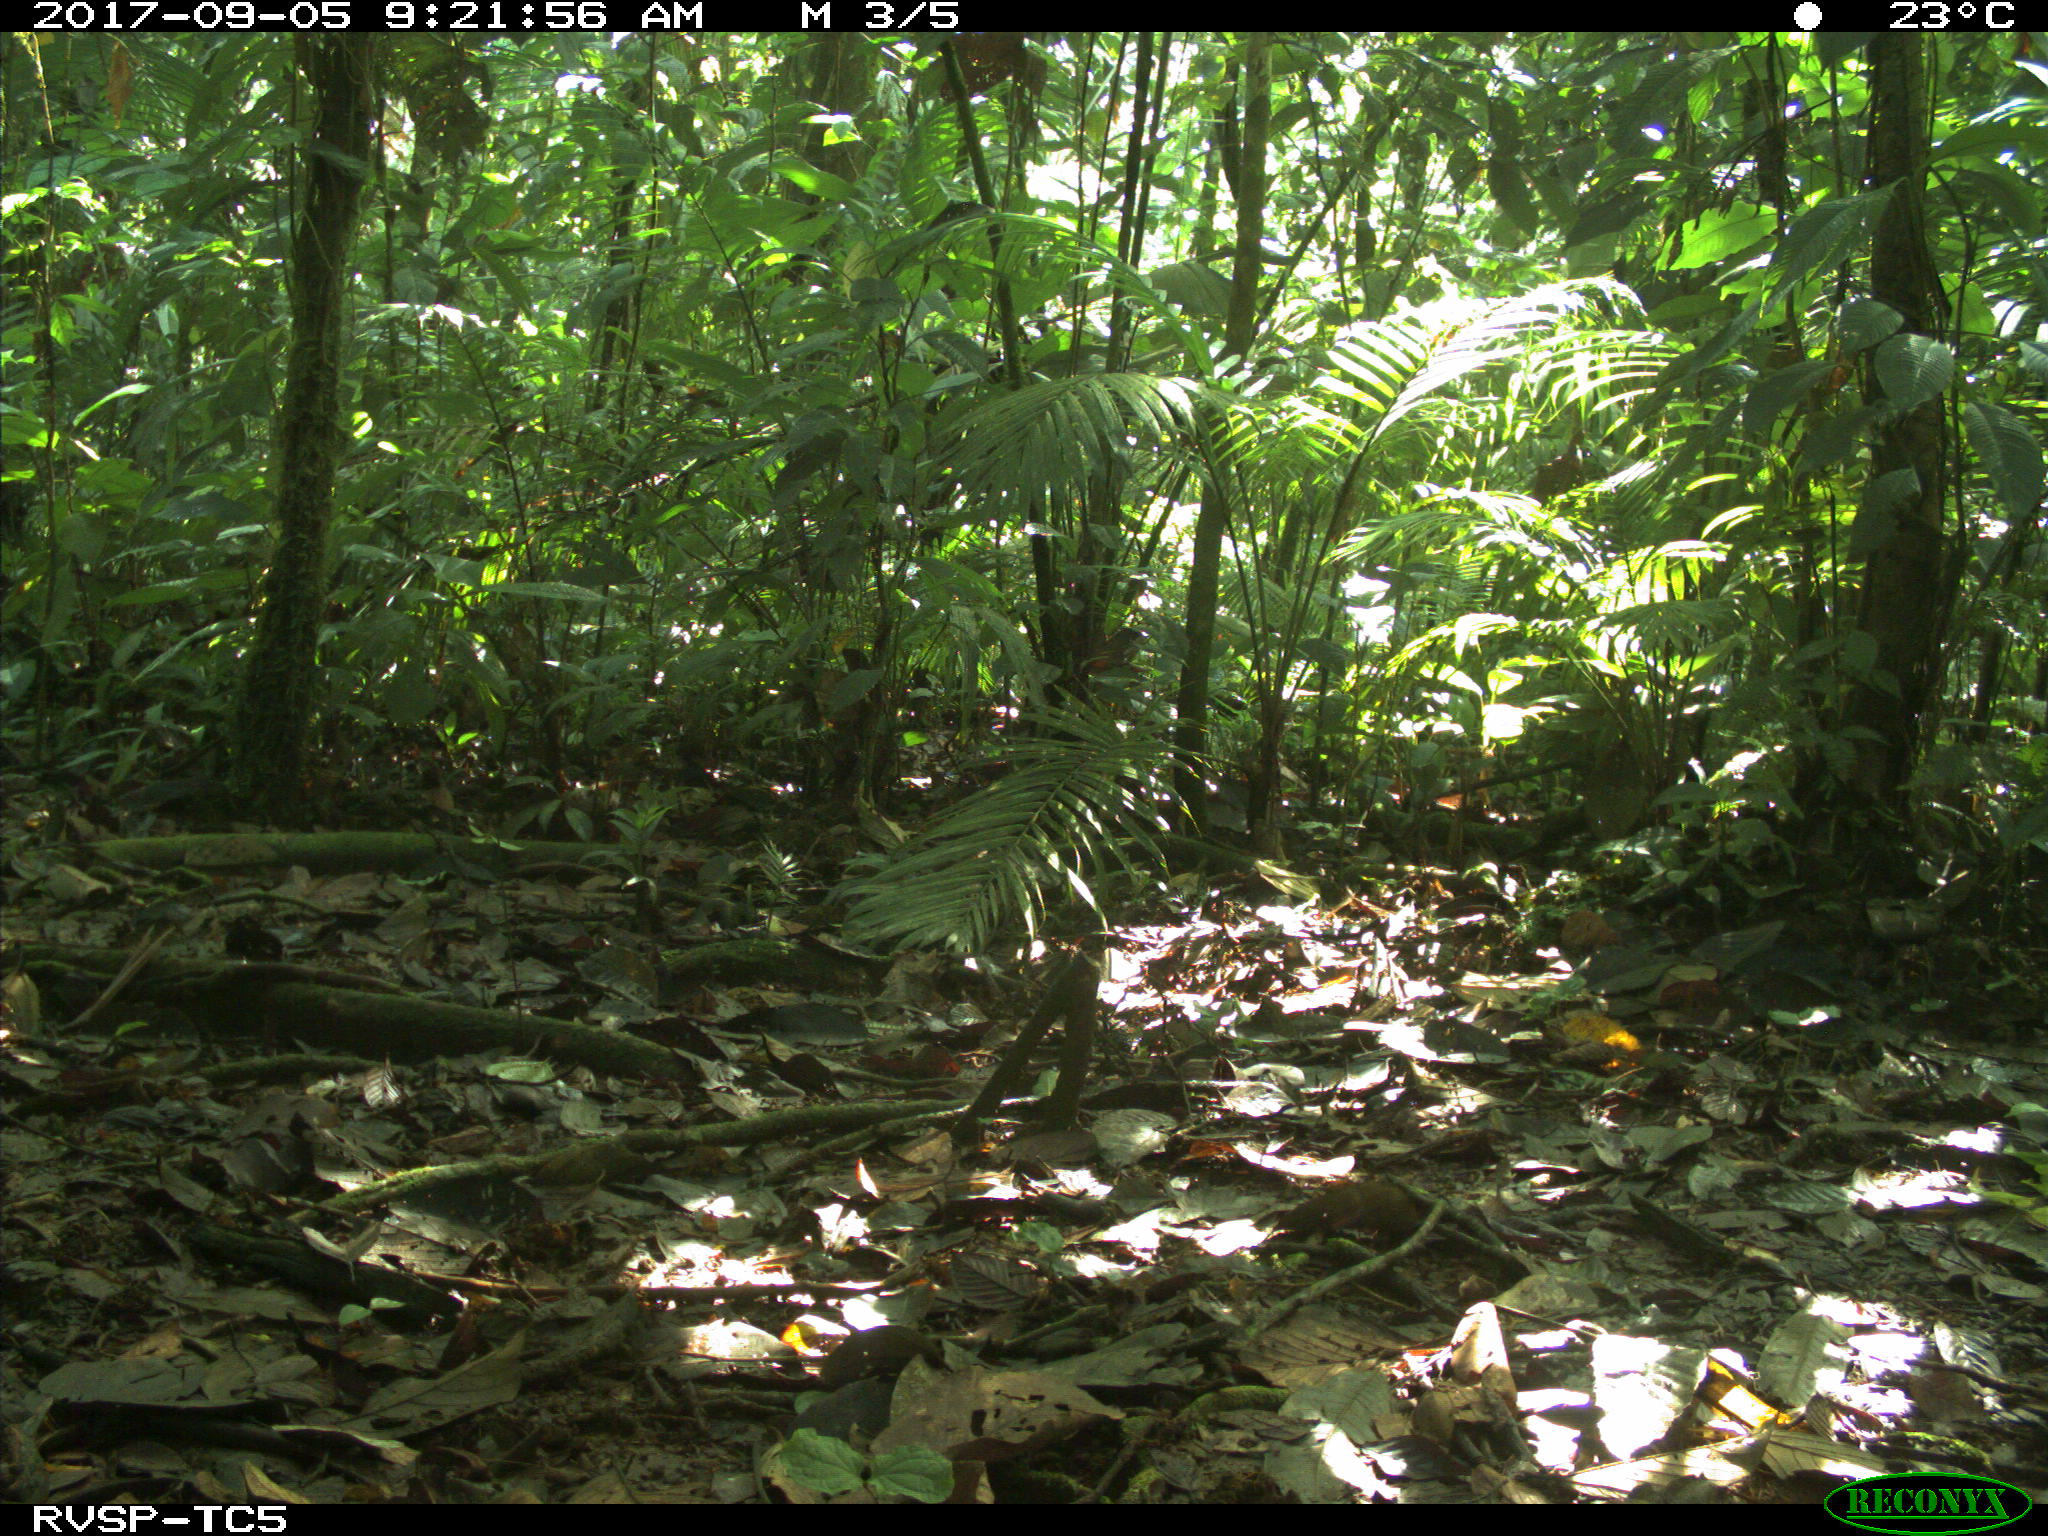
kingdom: Animalia
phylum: Chordata
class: Mammalia
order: Artiodactyla
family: Tayassuidae
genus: Tayassu
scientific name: Tayassu pecari
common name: White-lipped peccary
